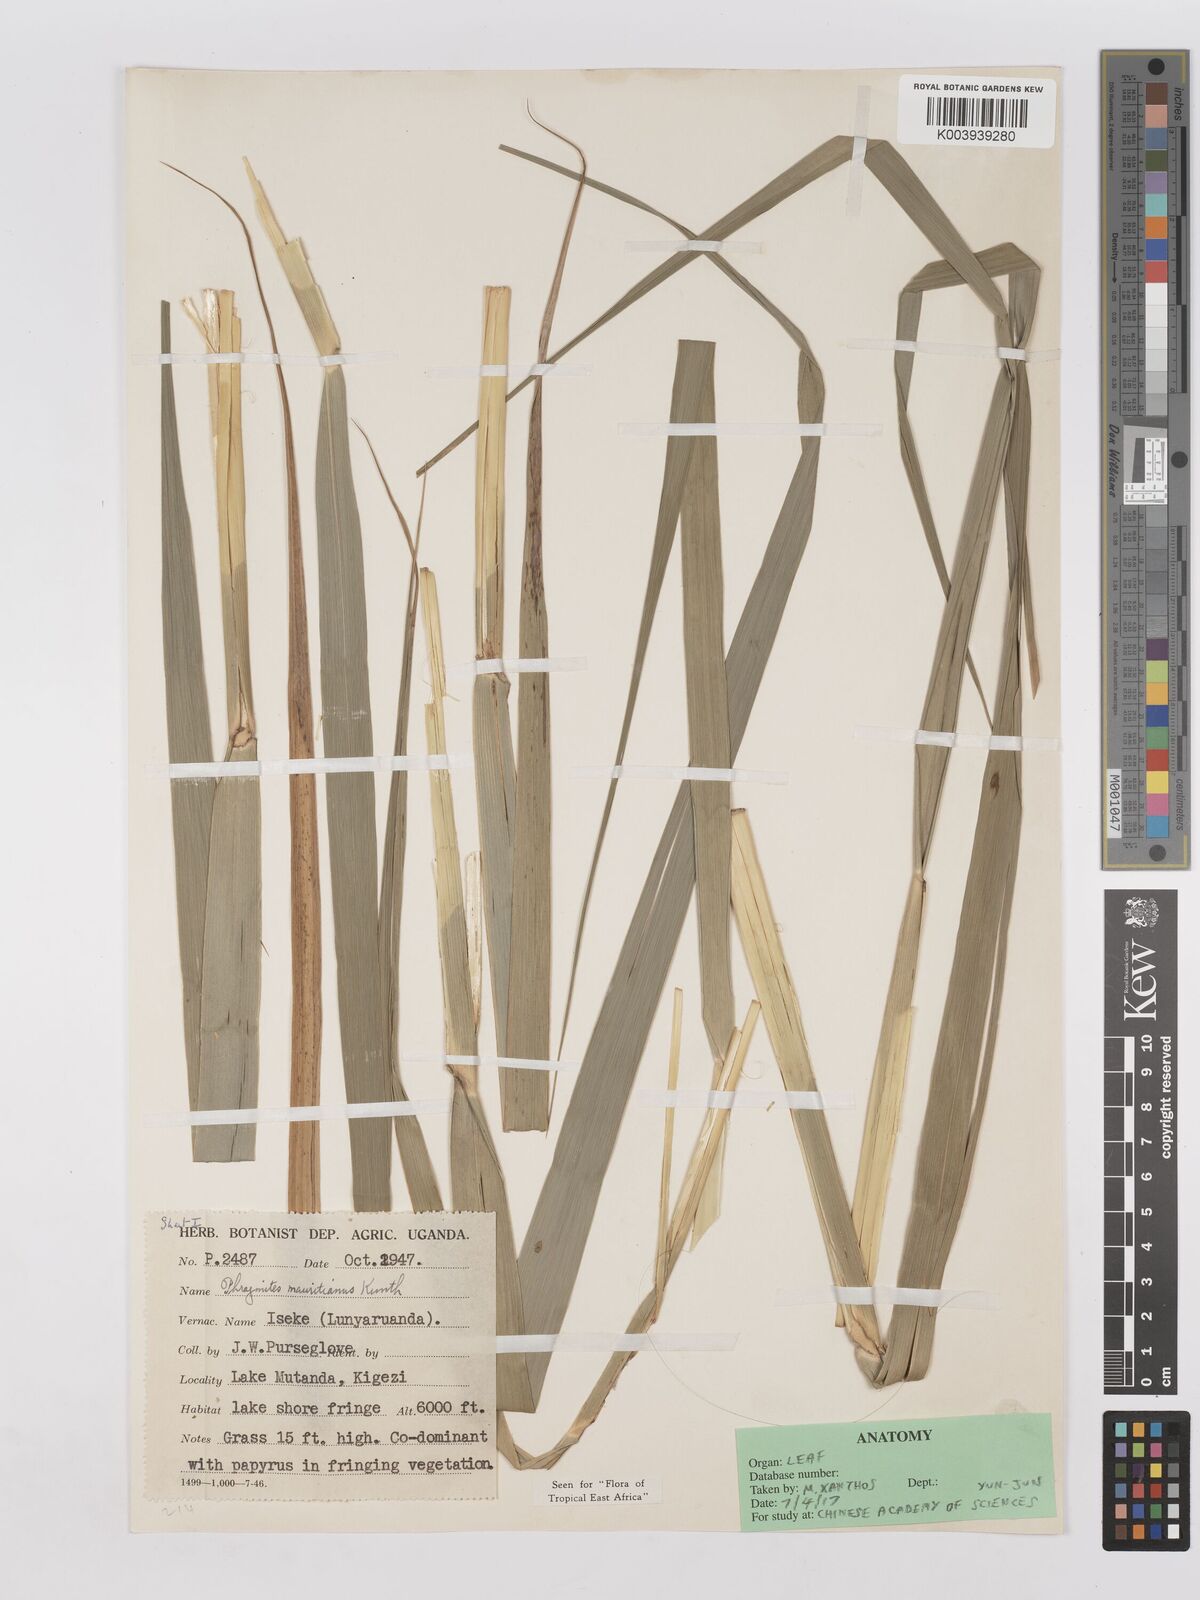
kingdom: Plantae
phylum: Tracheophyta
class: Liliopsida
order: Poales
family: Poaceae
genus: Phragmites
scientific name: Phragmites mauritianus
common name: Reed grass
